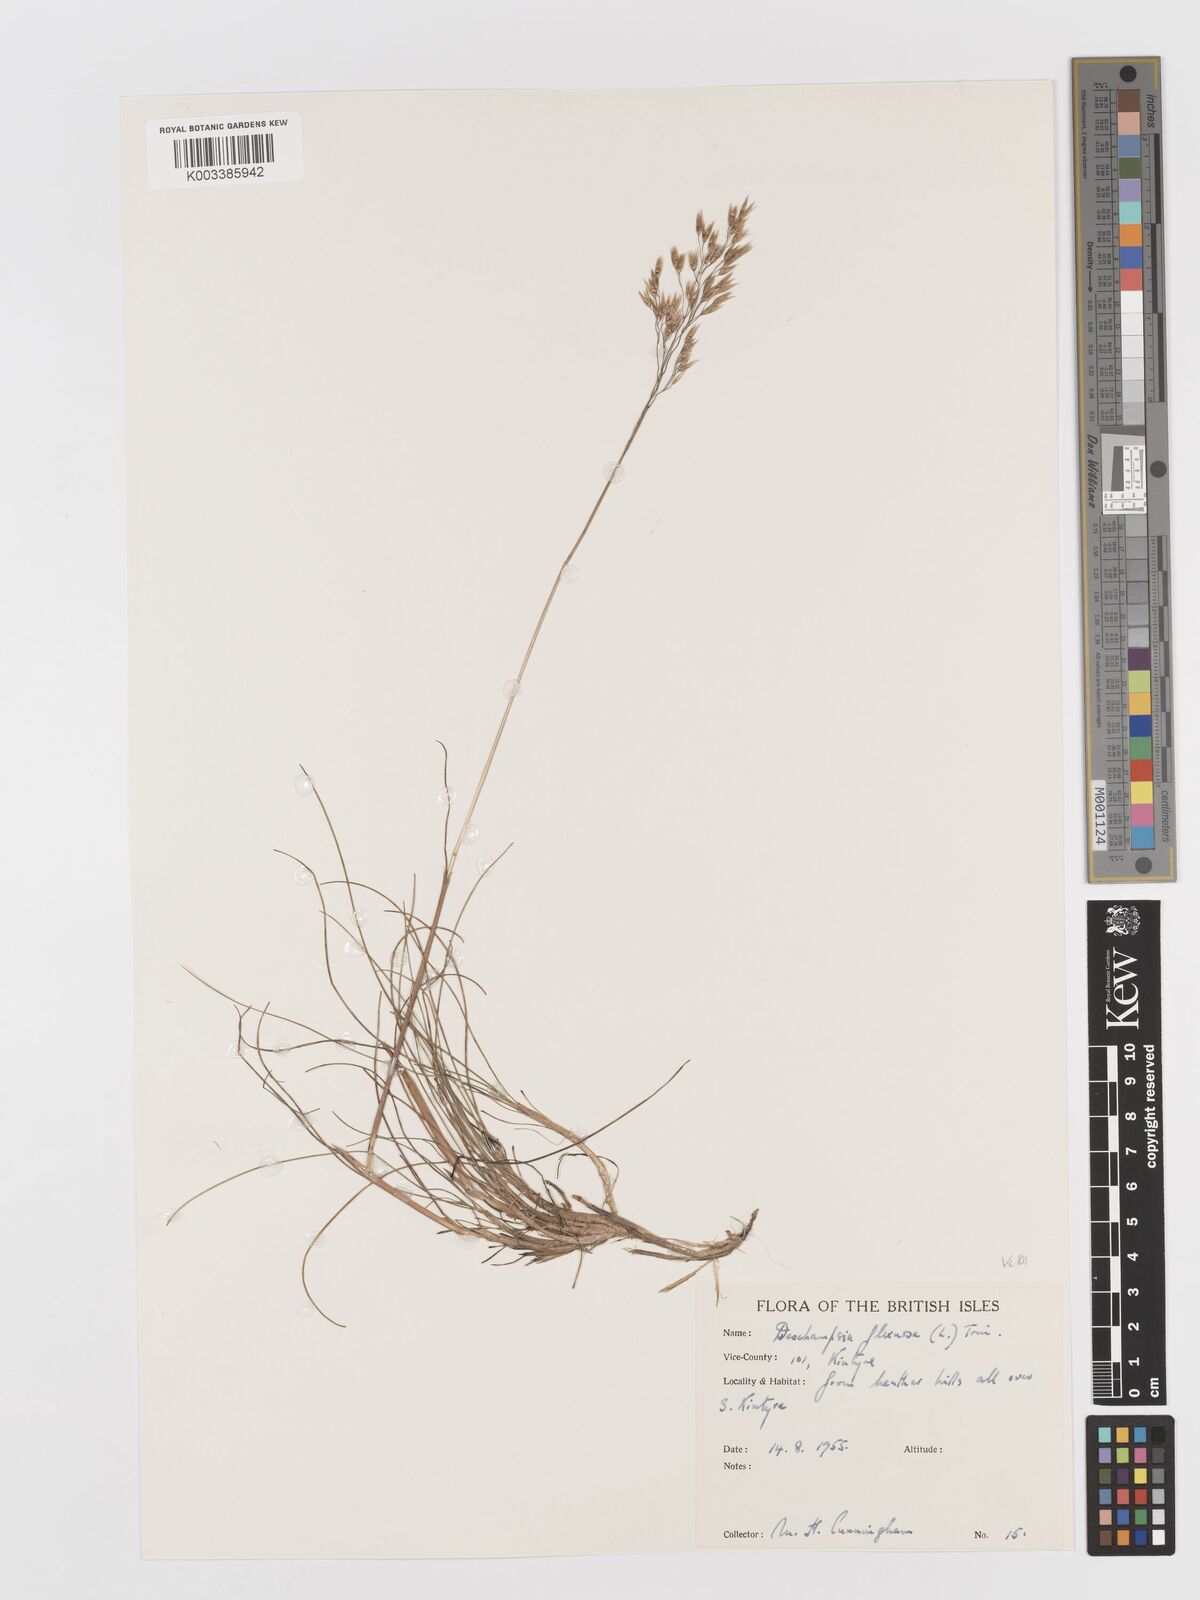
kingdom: Plantae
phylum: Tracheophyta
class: Liliopsida
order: Poales
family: Poaceae
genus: Avenella
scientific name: Avenella flexuosa
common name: Wavy hairgrass
